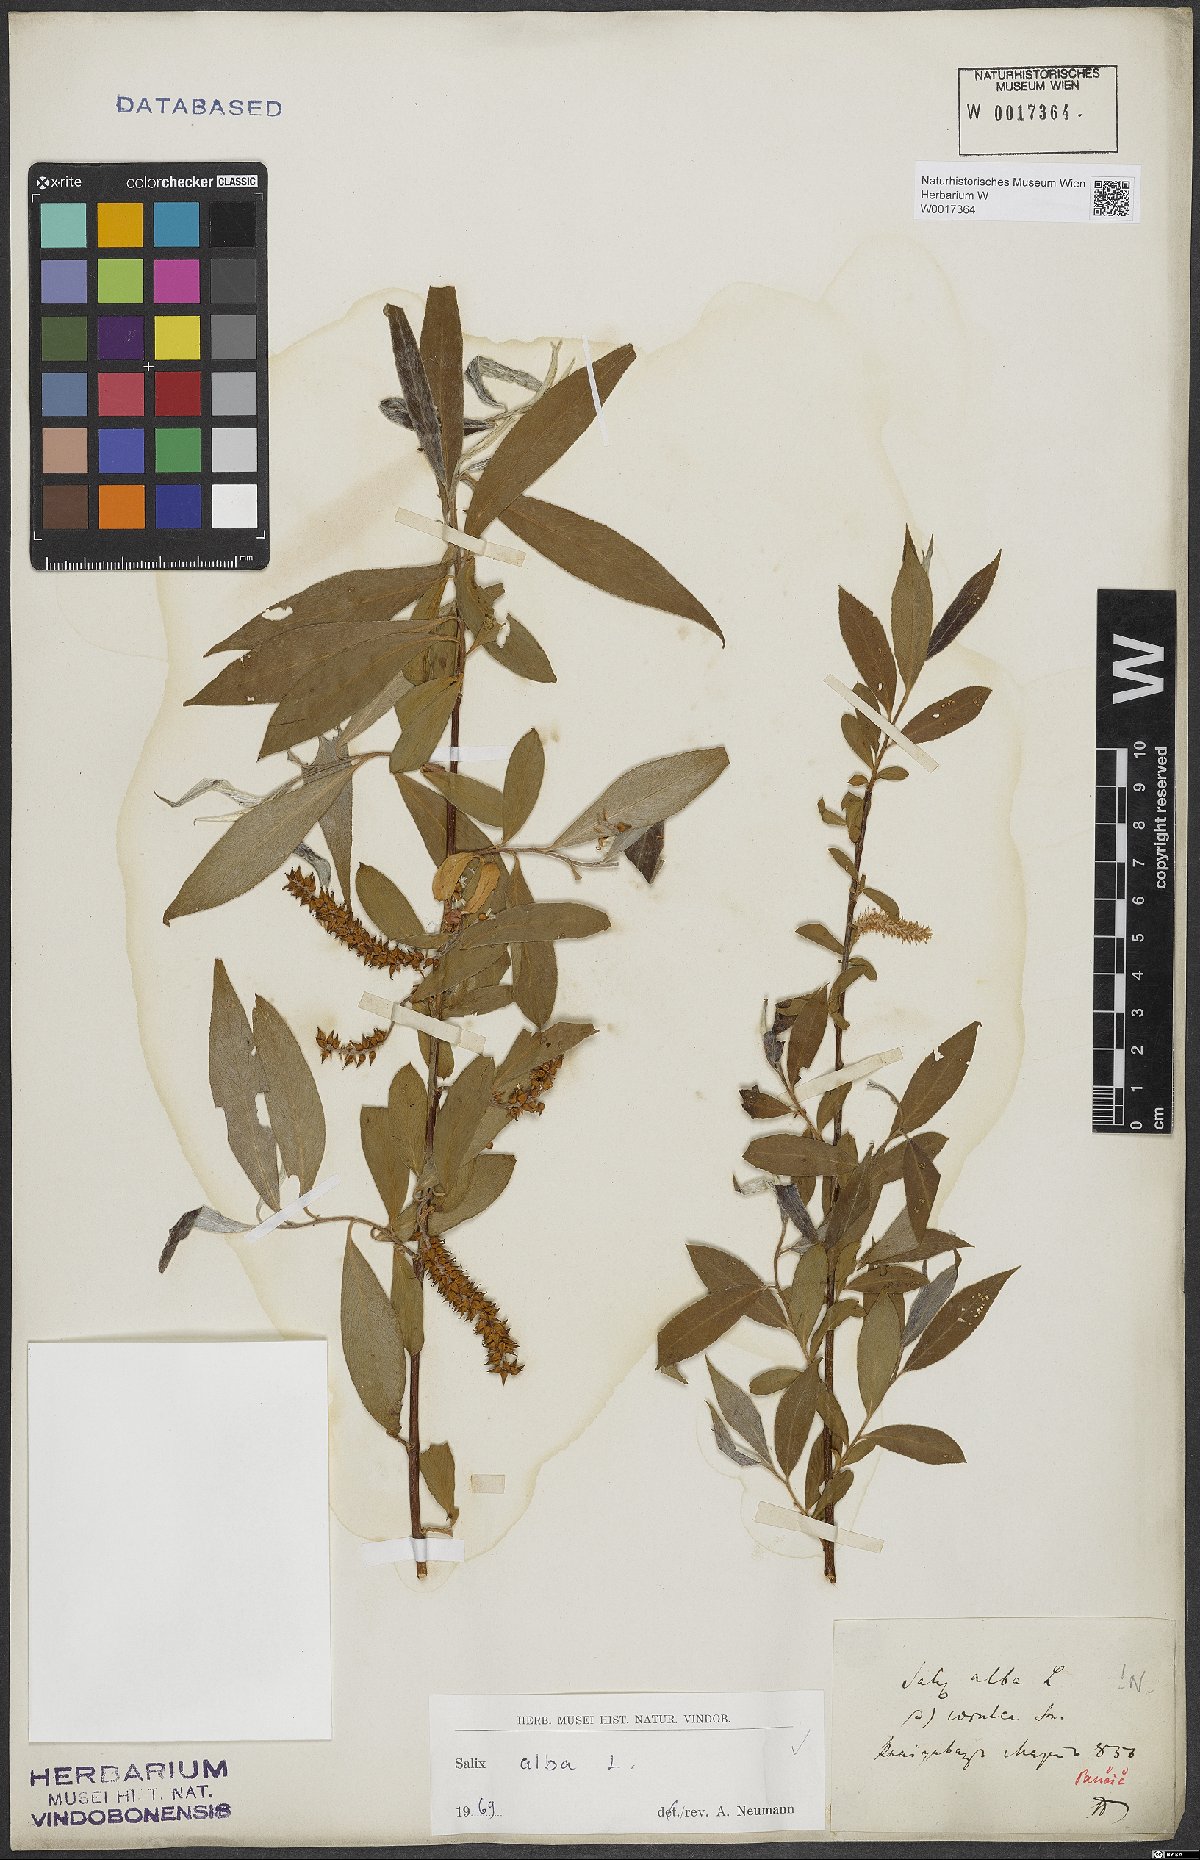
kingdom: Plantae
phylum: Tracheophyta
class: Magnoliopsida
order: Malpighiales
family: Salicaceae
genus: Salix
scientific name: Salix alba
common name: White willow
